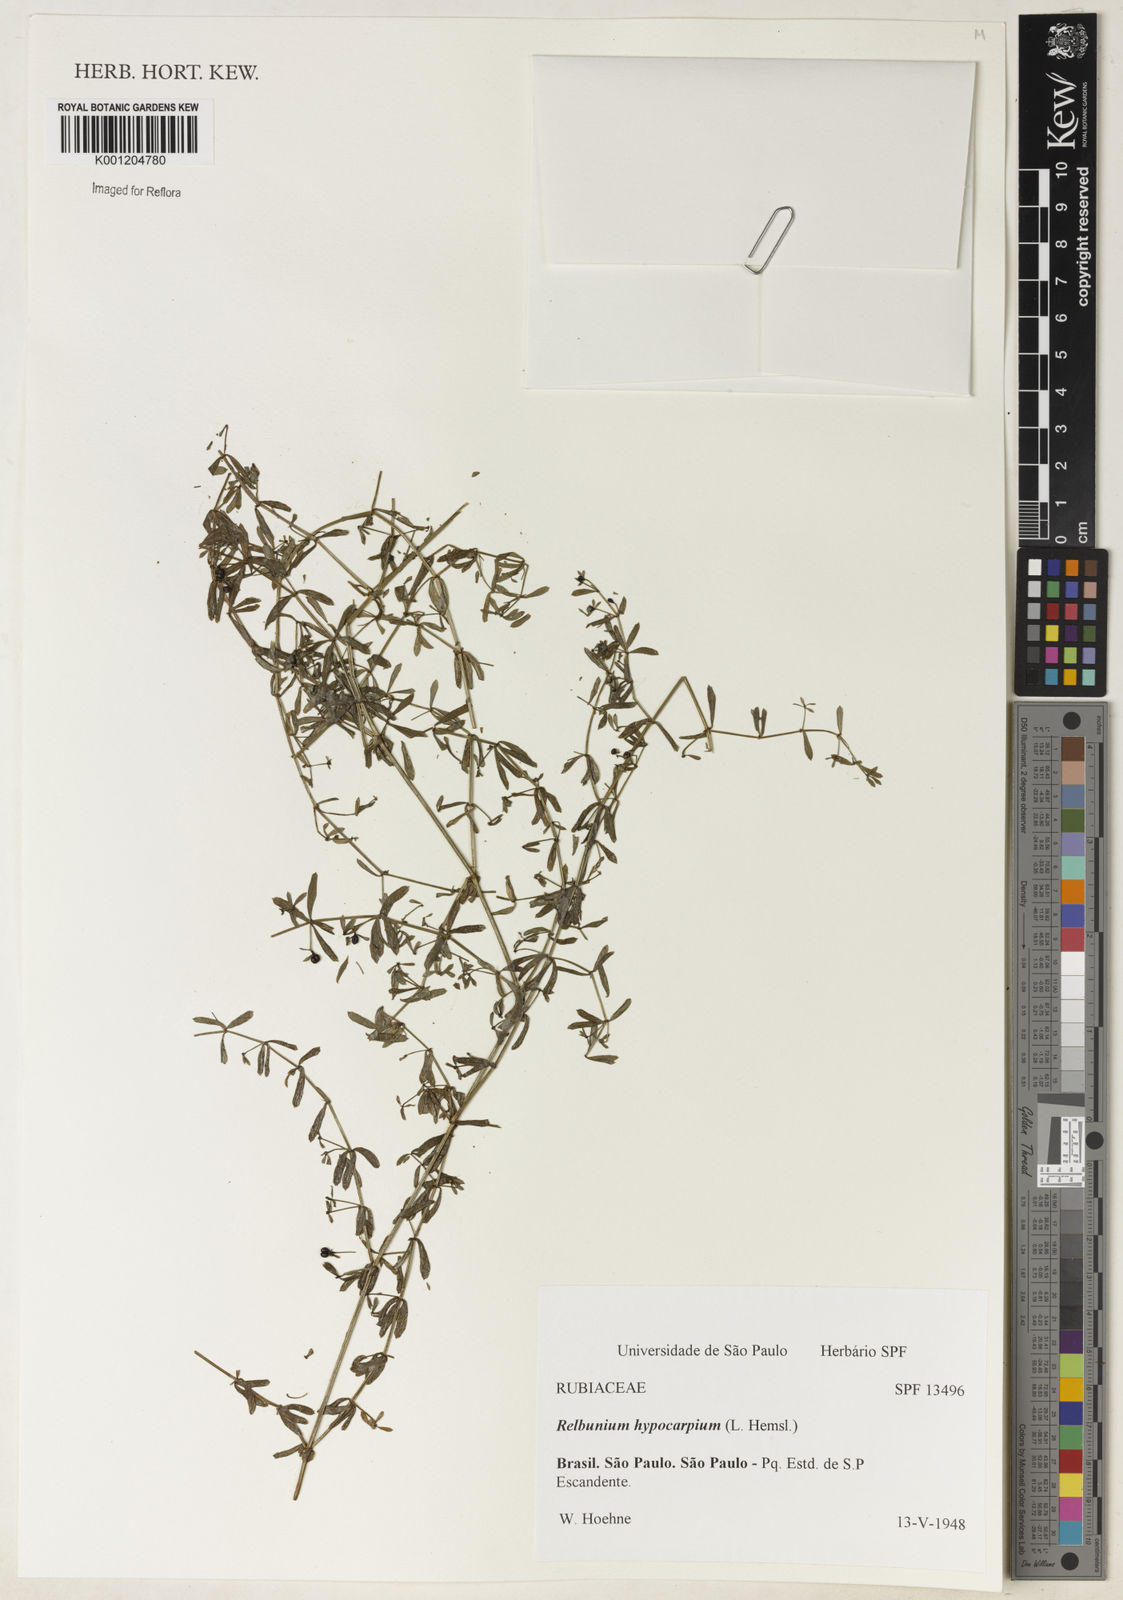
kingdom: Plantae
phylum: Tracheophyta
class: Magnoliopsida
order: Gentianales
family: Rubiaceae
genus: Galium
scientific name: Galium hypocarpium
